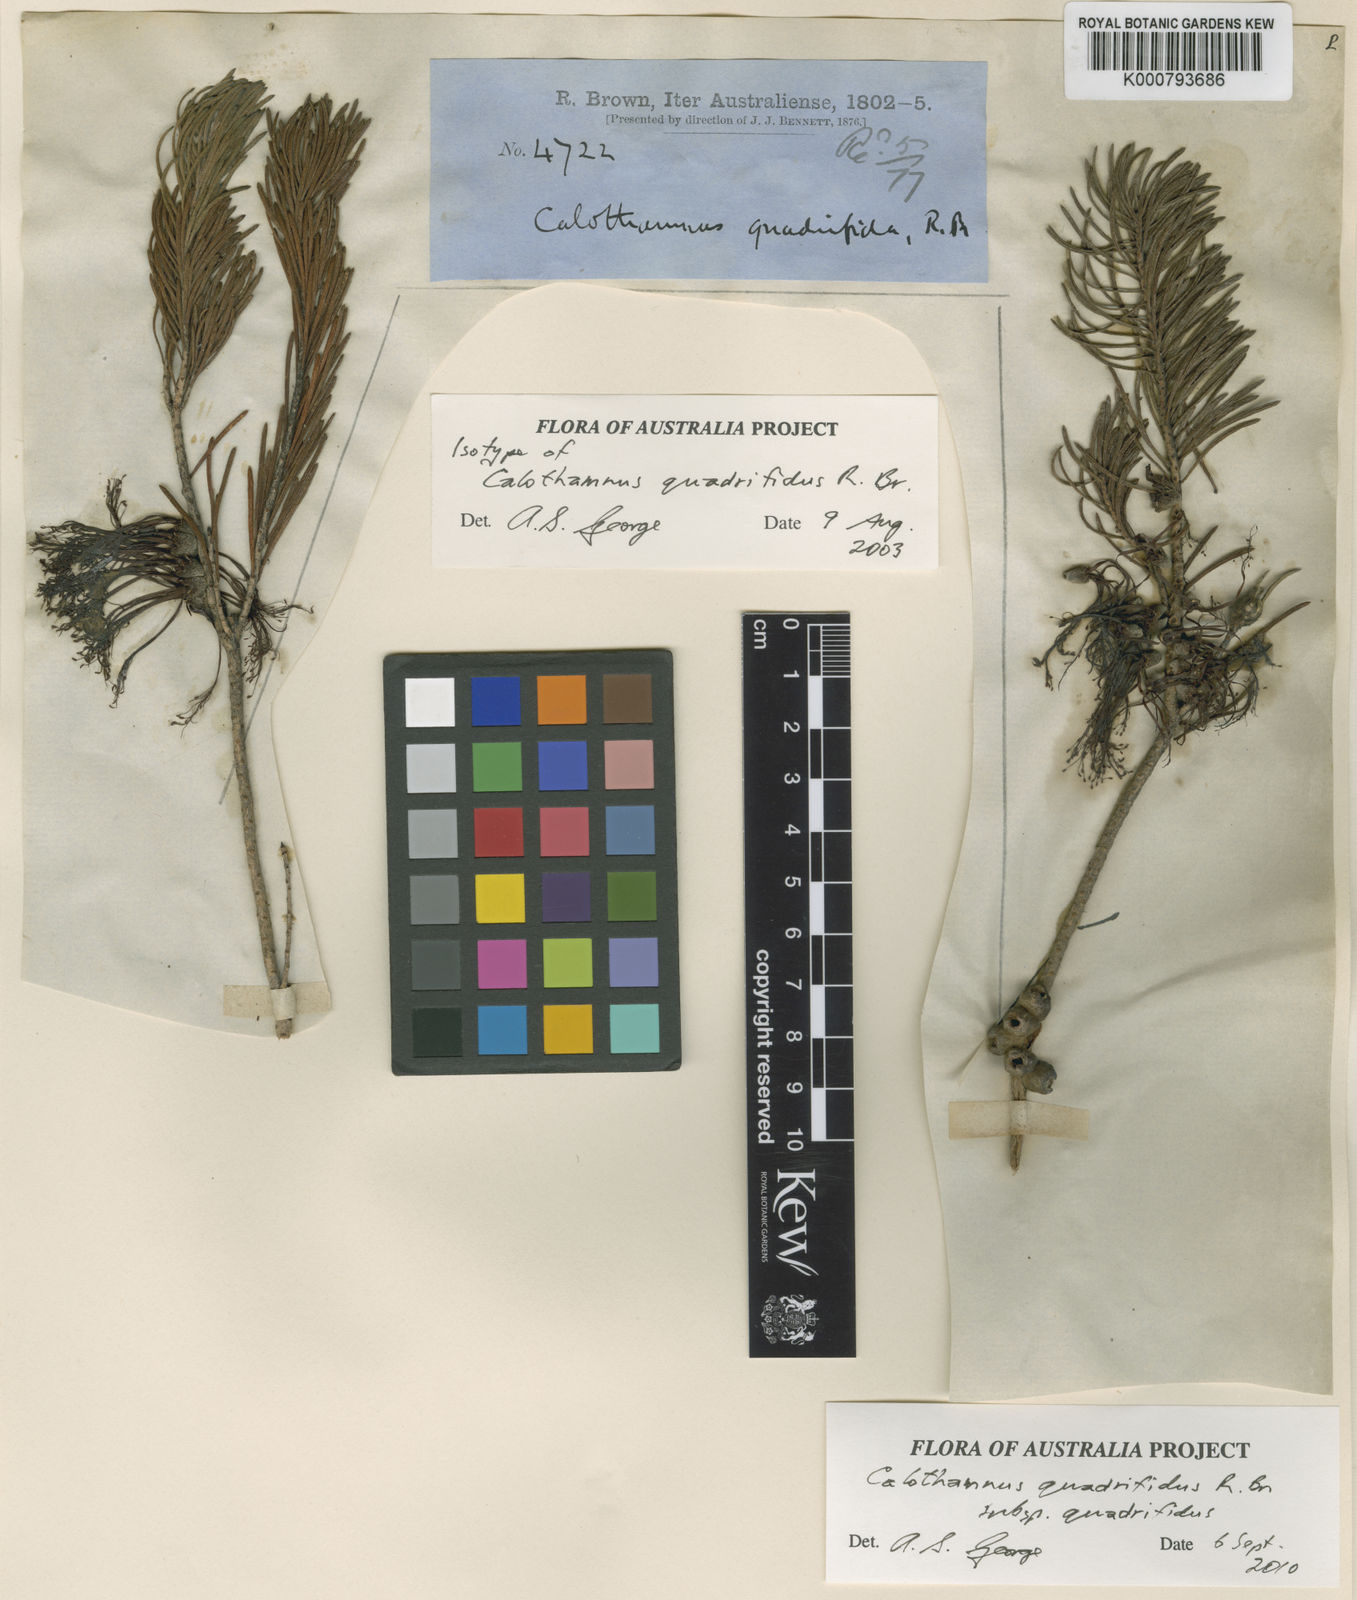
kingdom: Plantae
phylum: Tracheophyta
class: Magnoliopsida
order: Myrtales
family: Myrtaceae
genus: Melaleuca
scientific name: Melaleuca
